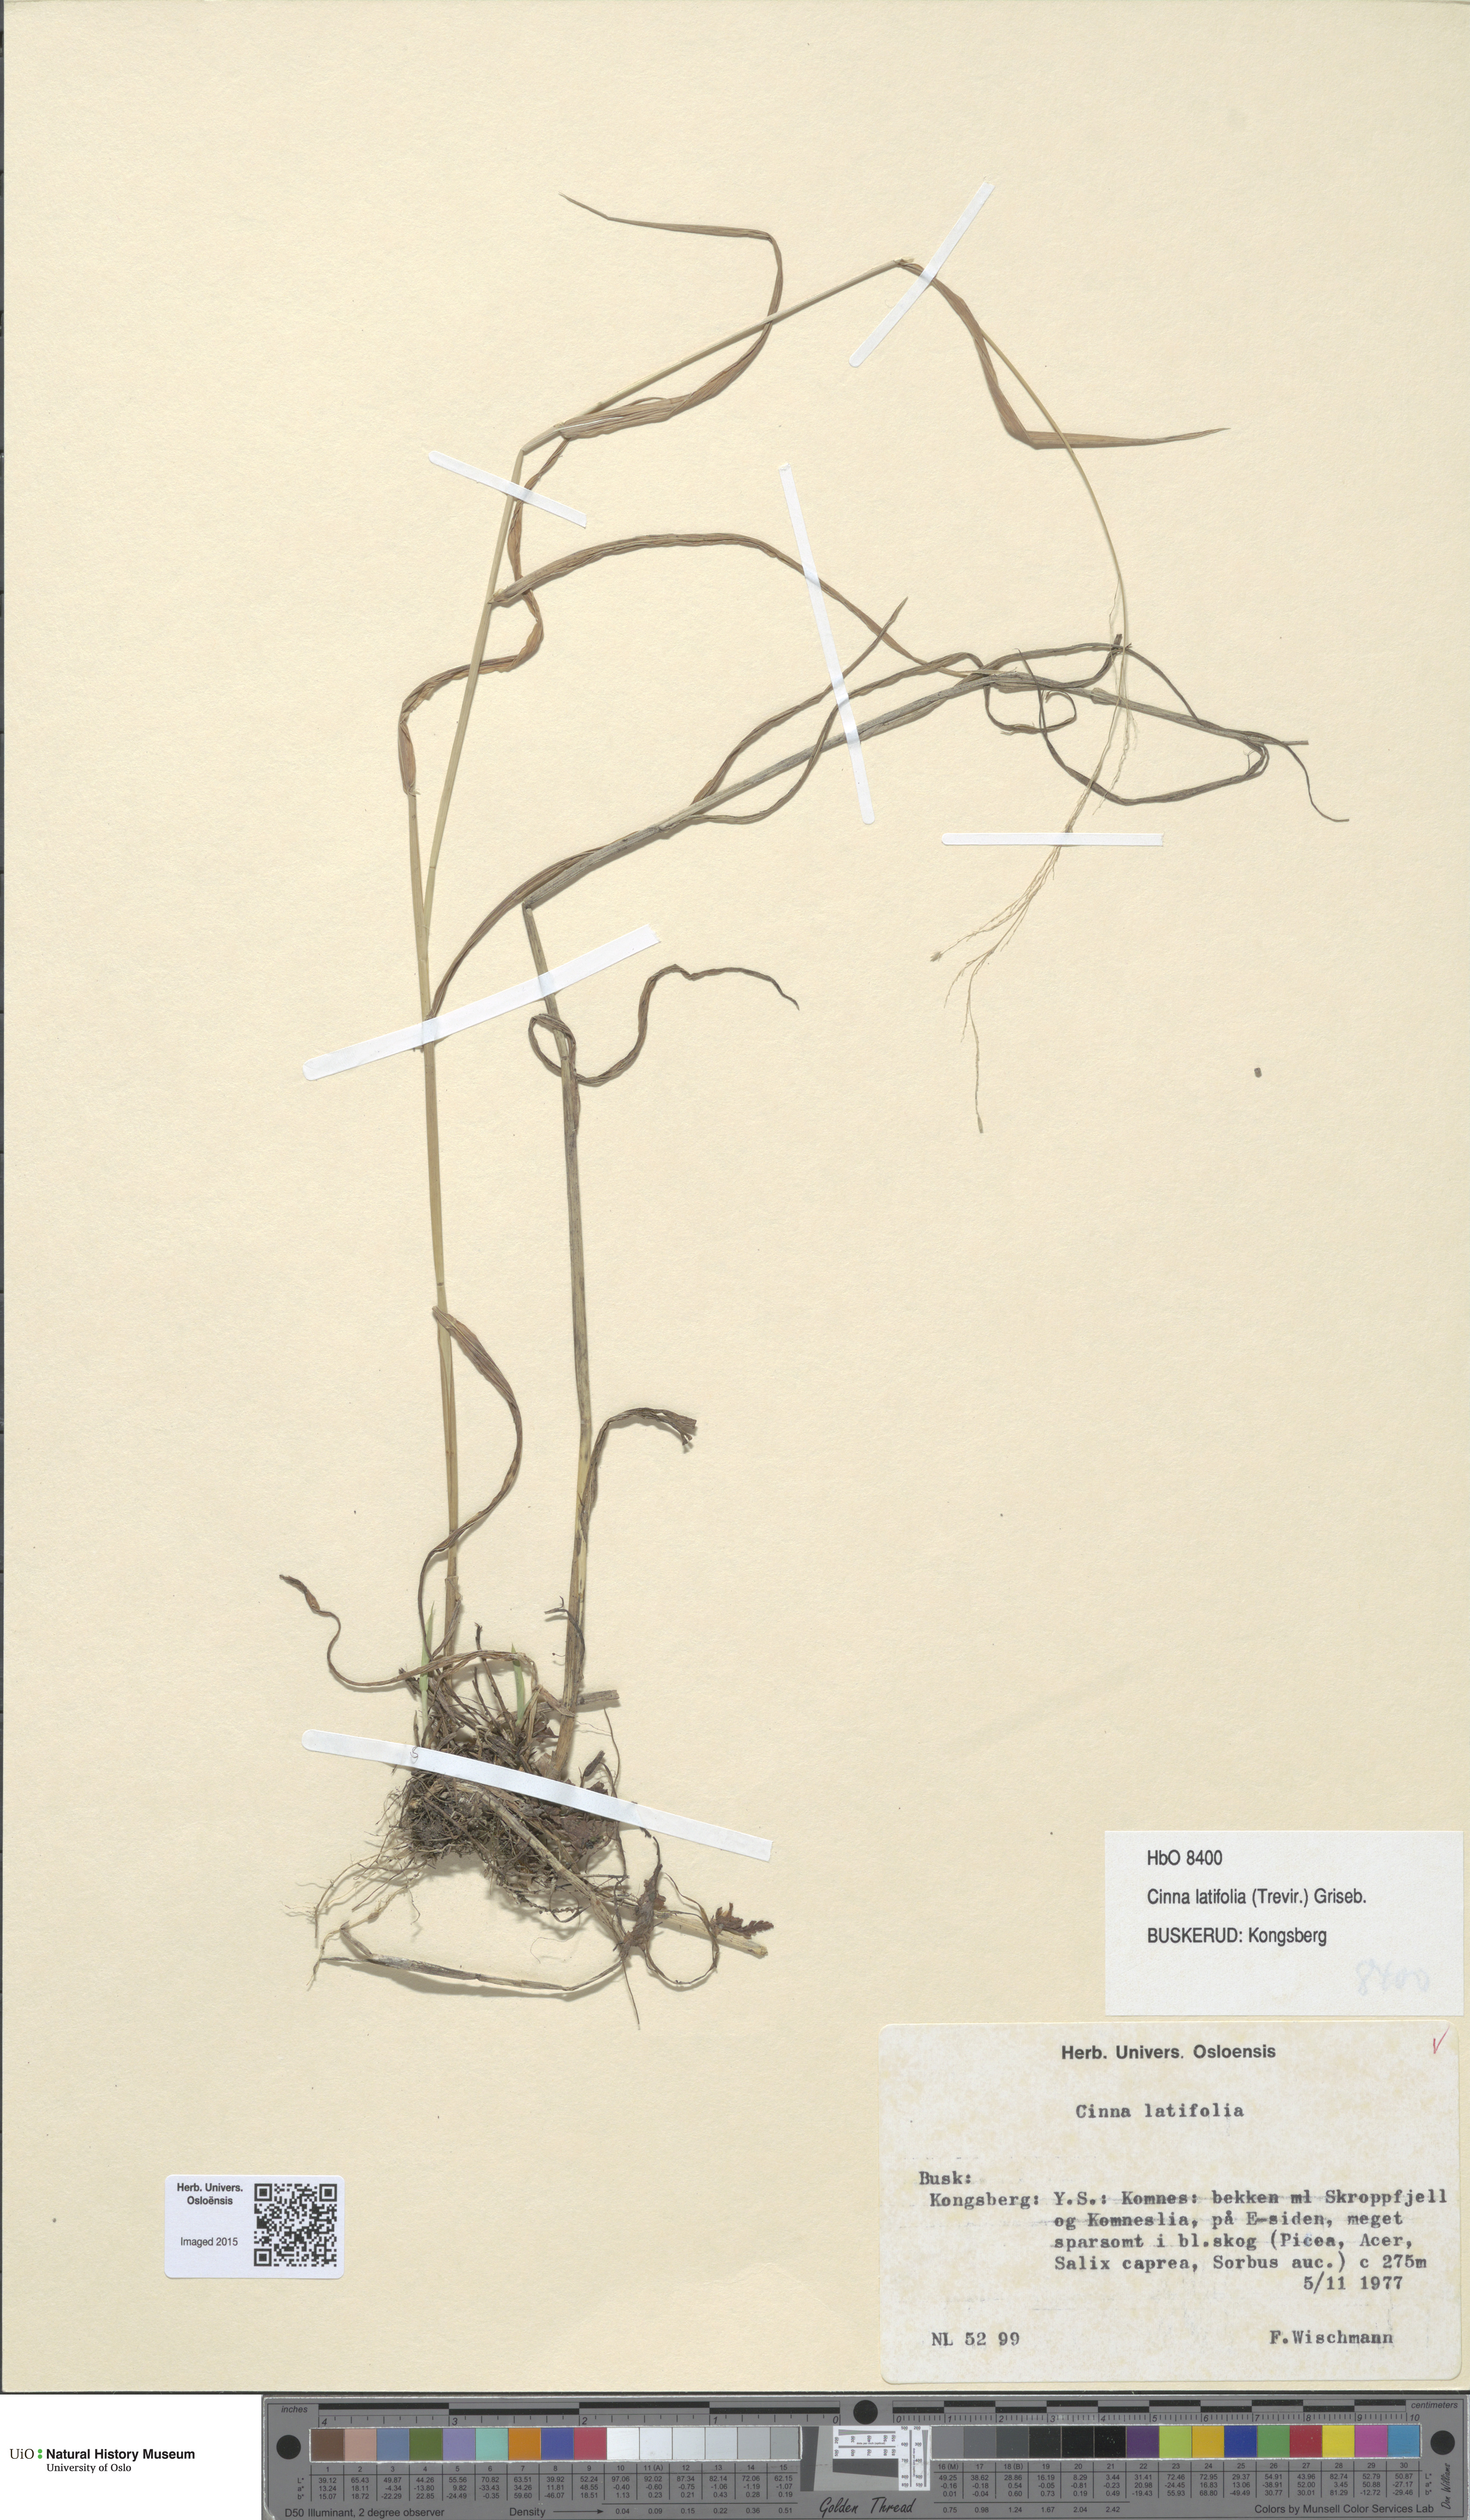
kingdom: Plantae
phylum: Tracheophyta
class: Liliopsida
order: Poales
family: Poaceae
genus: Cinna
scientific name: Cinna latifolia
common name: Drooping woodreed
